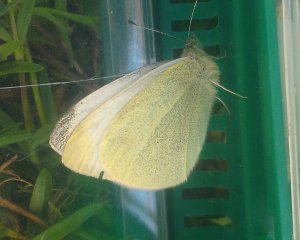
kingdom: Animalia
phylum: Arthropoda
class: Insecta
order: Lepidoptera
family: Pieridae
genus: Pieris
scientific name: Pieris rapae
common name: Cabbage White
